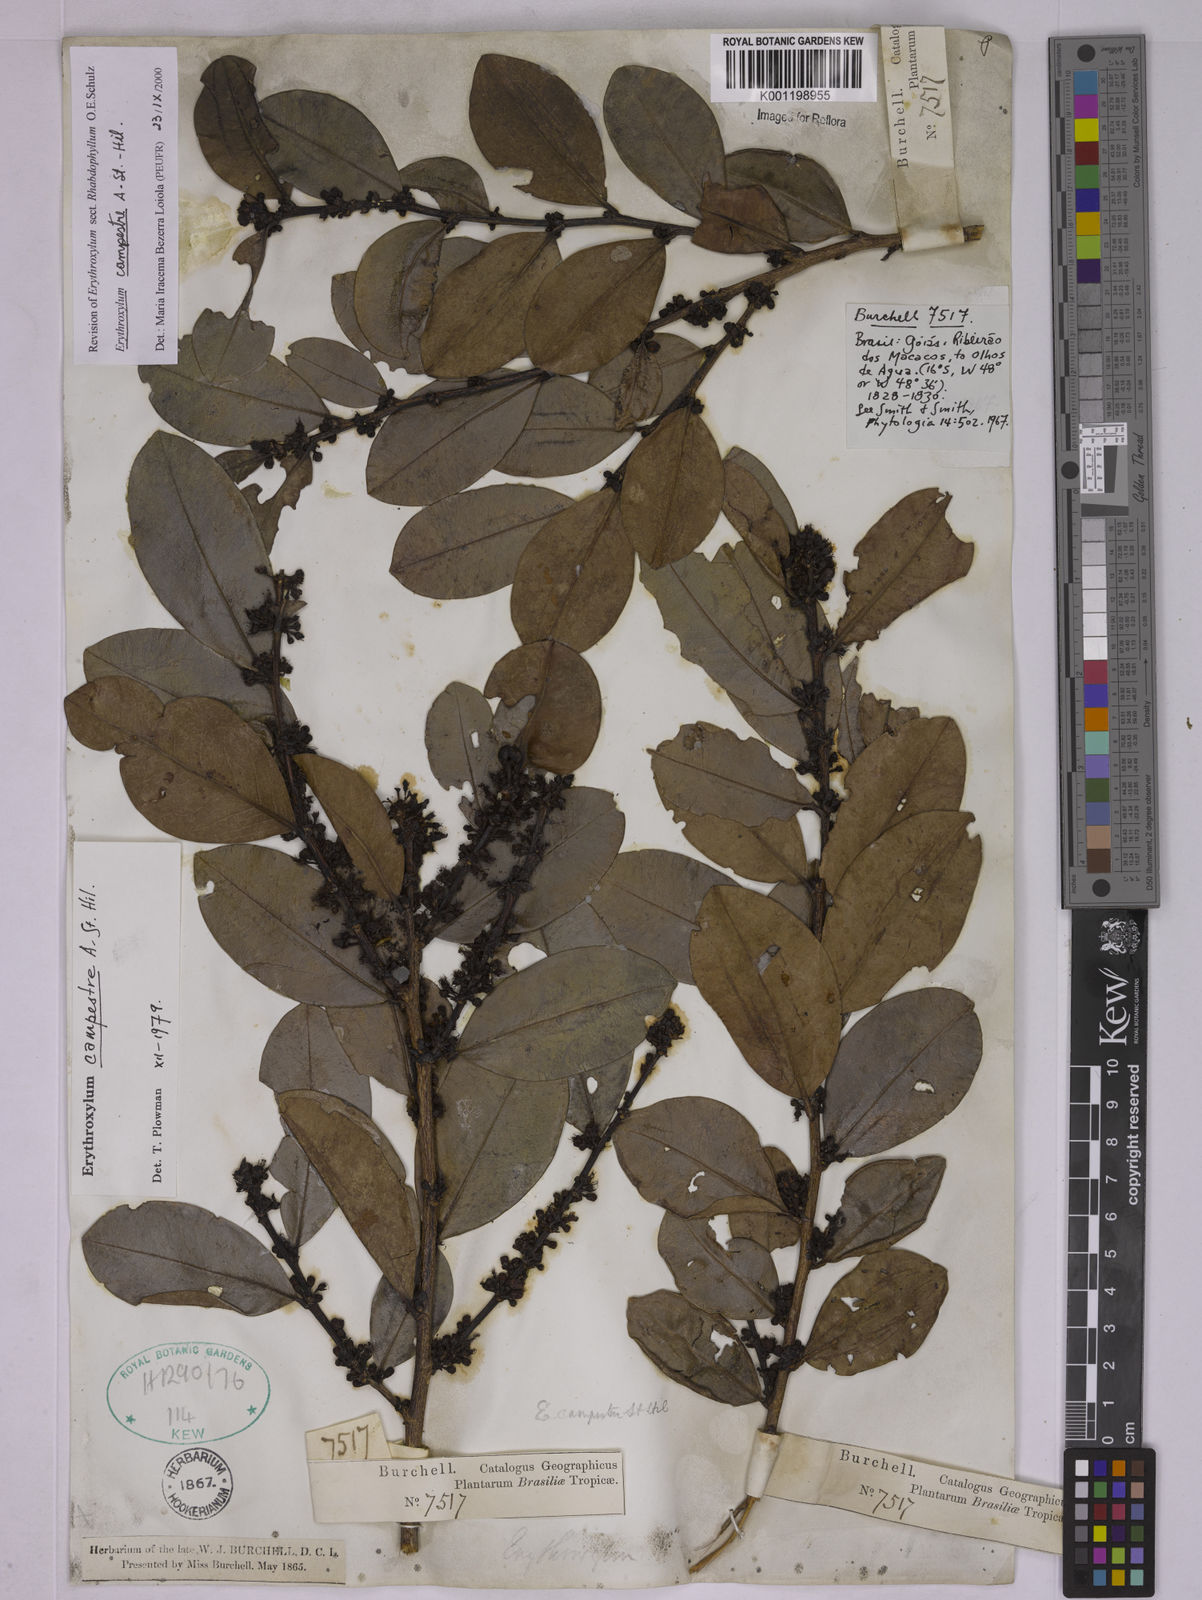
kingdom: Plantae
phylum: Tracheophyta
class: Magnoliopsida
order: Malpighiales
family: Erythroxylaceae
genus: Erythroxylum
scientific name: Erythroxylum campestre
